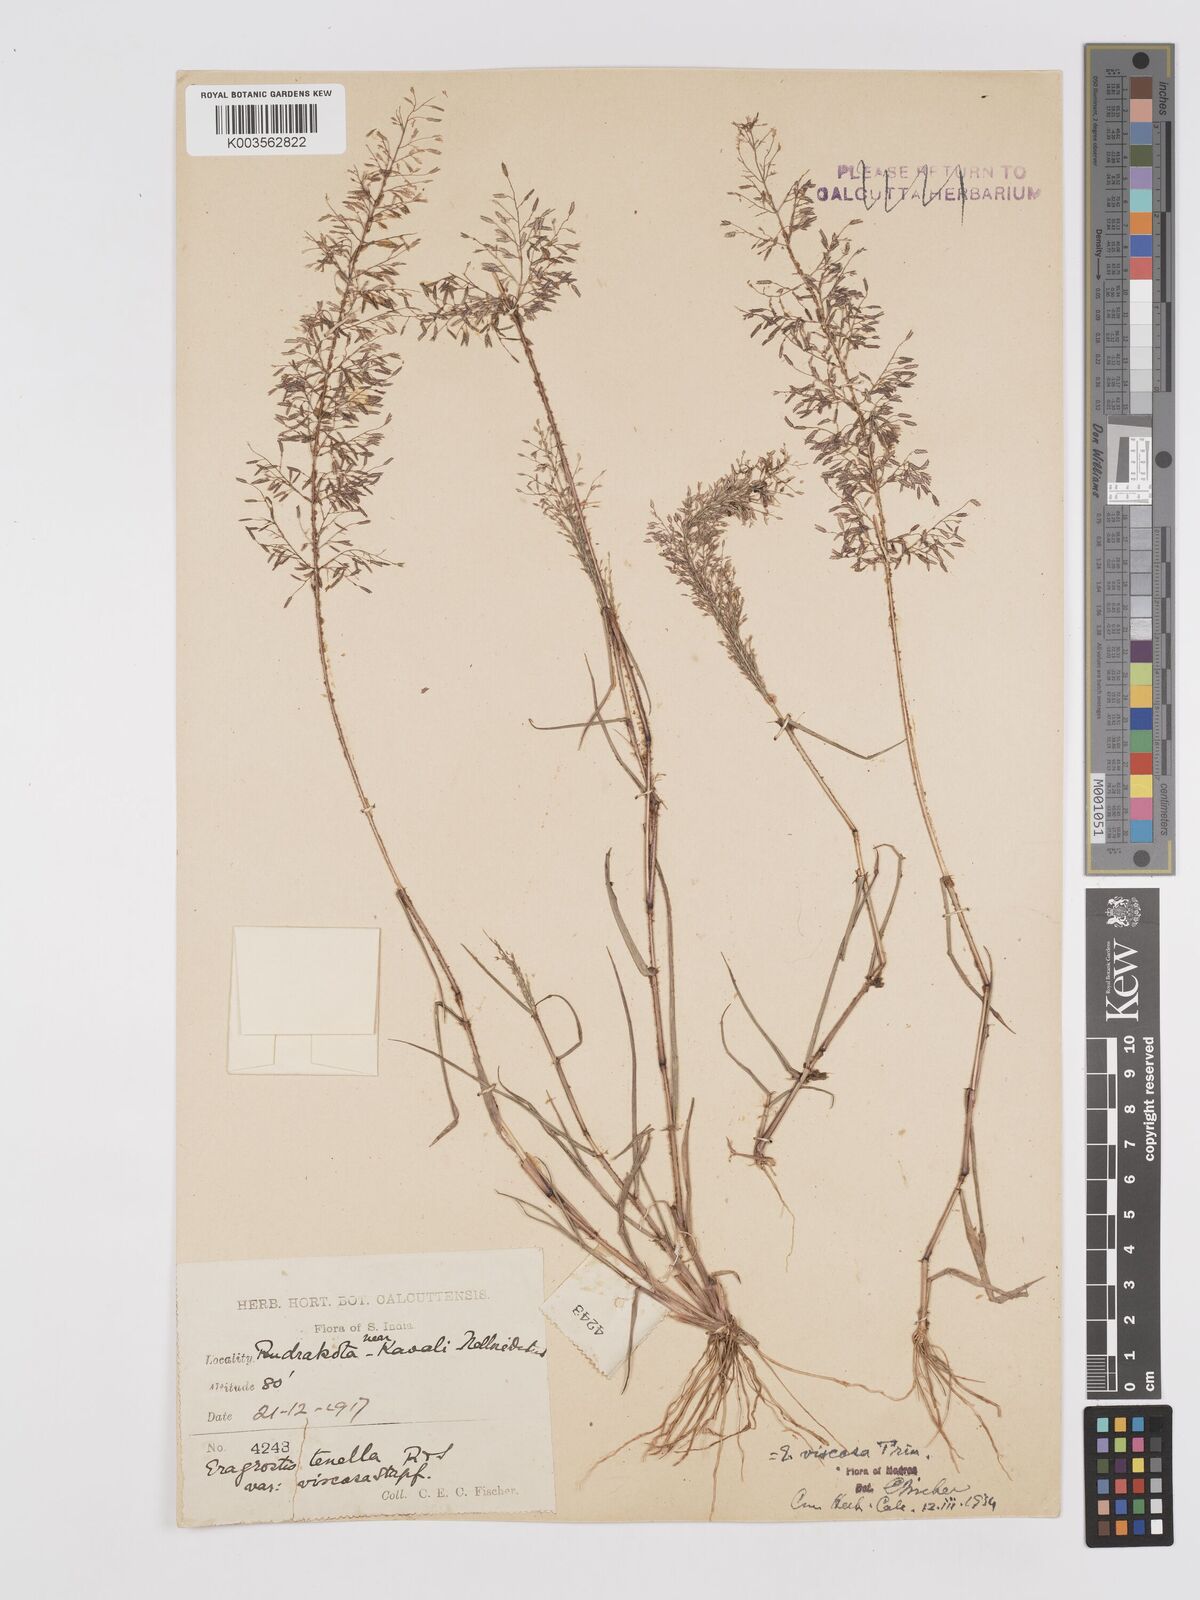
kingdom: Plantae
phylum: Tracheophyta
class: Liliopsida
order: Poales
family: Poaceae
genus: Eragrostis
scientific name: Eragrostis viscosa
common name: Sticky love grass
